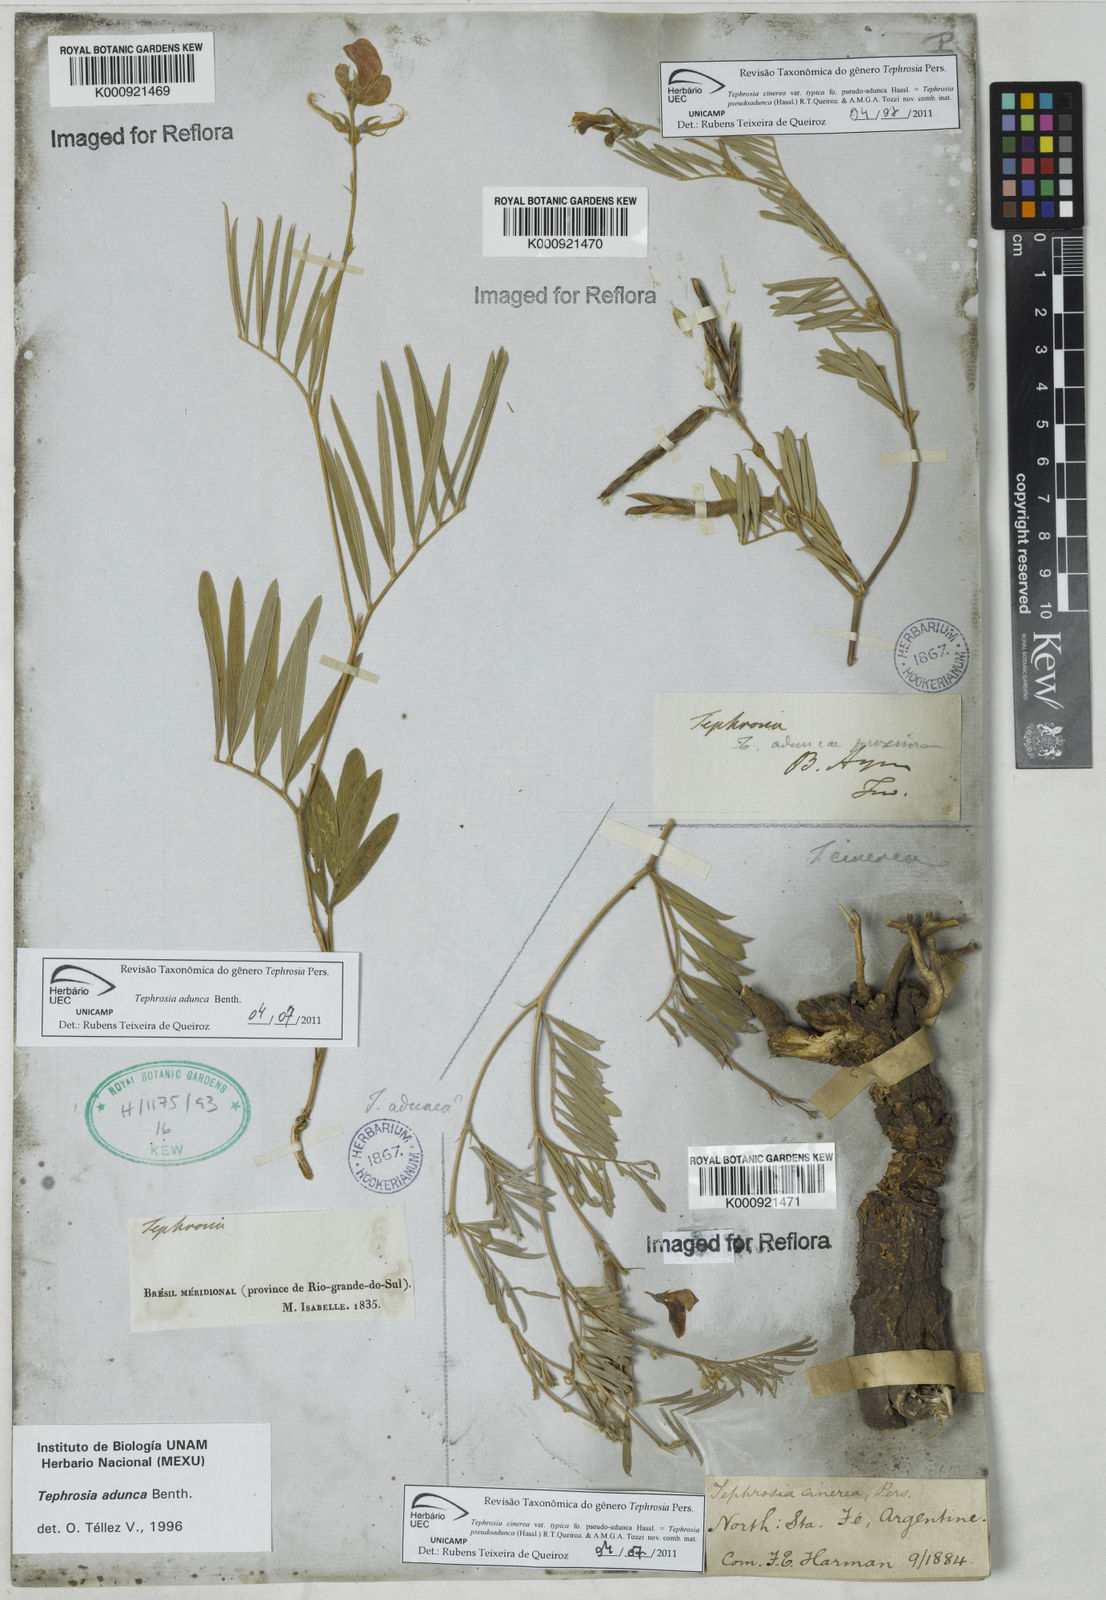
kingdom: Plantae
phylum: Tracheophyta
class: Magnoliopsida
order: Fabales
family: Fabaceae
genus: Tephrosia
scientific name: Tephrosia adunca
